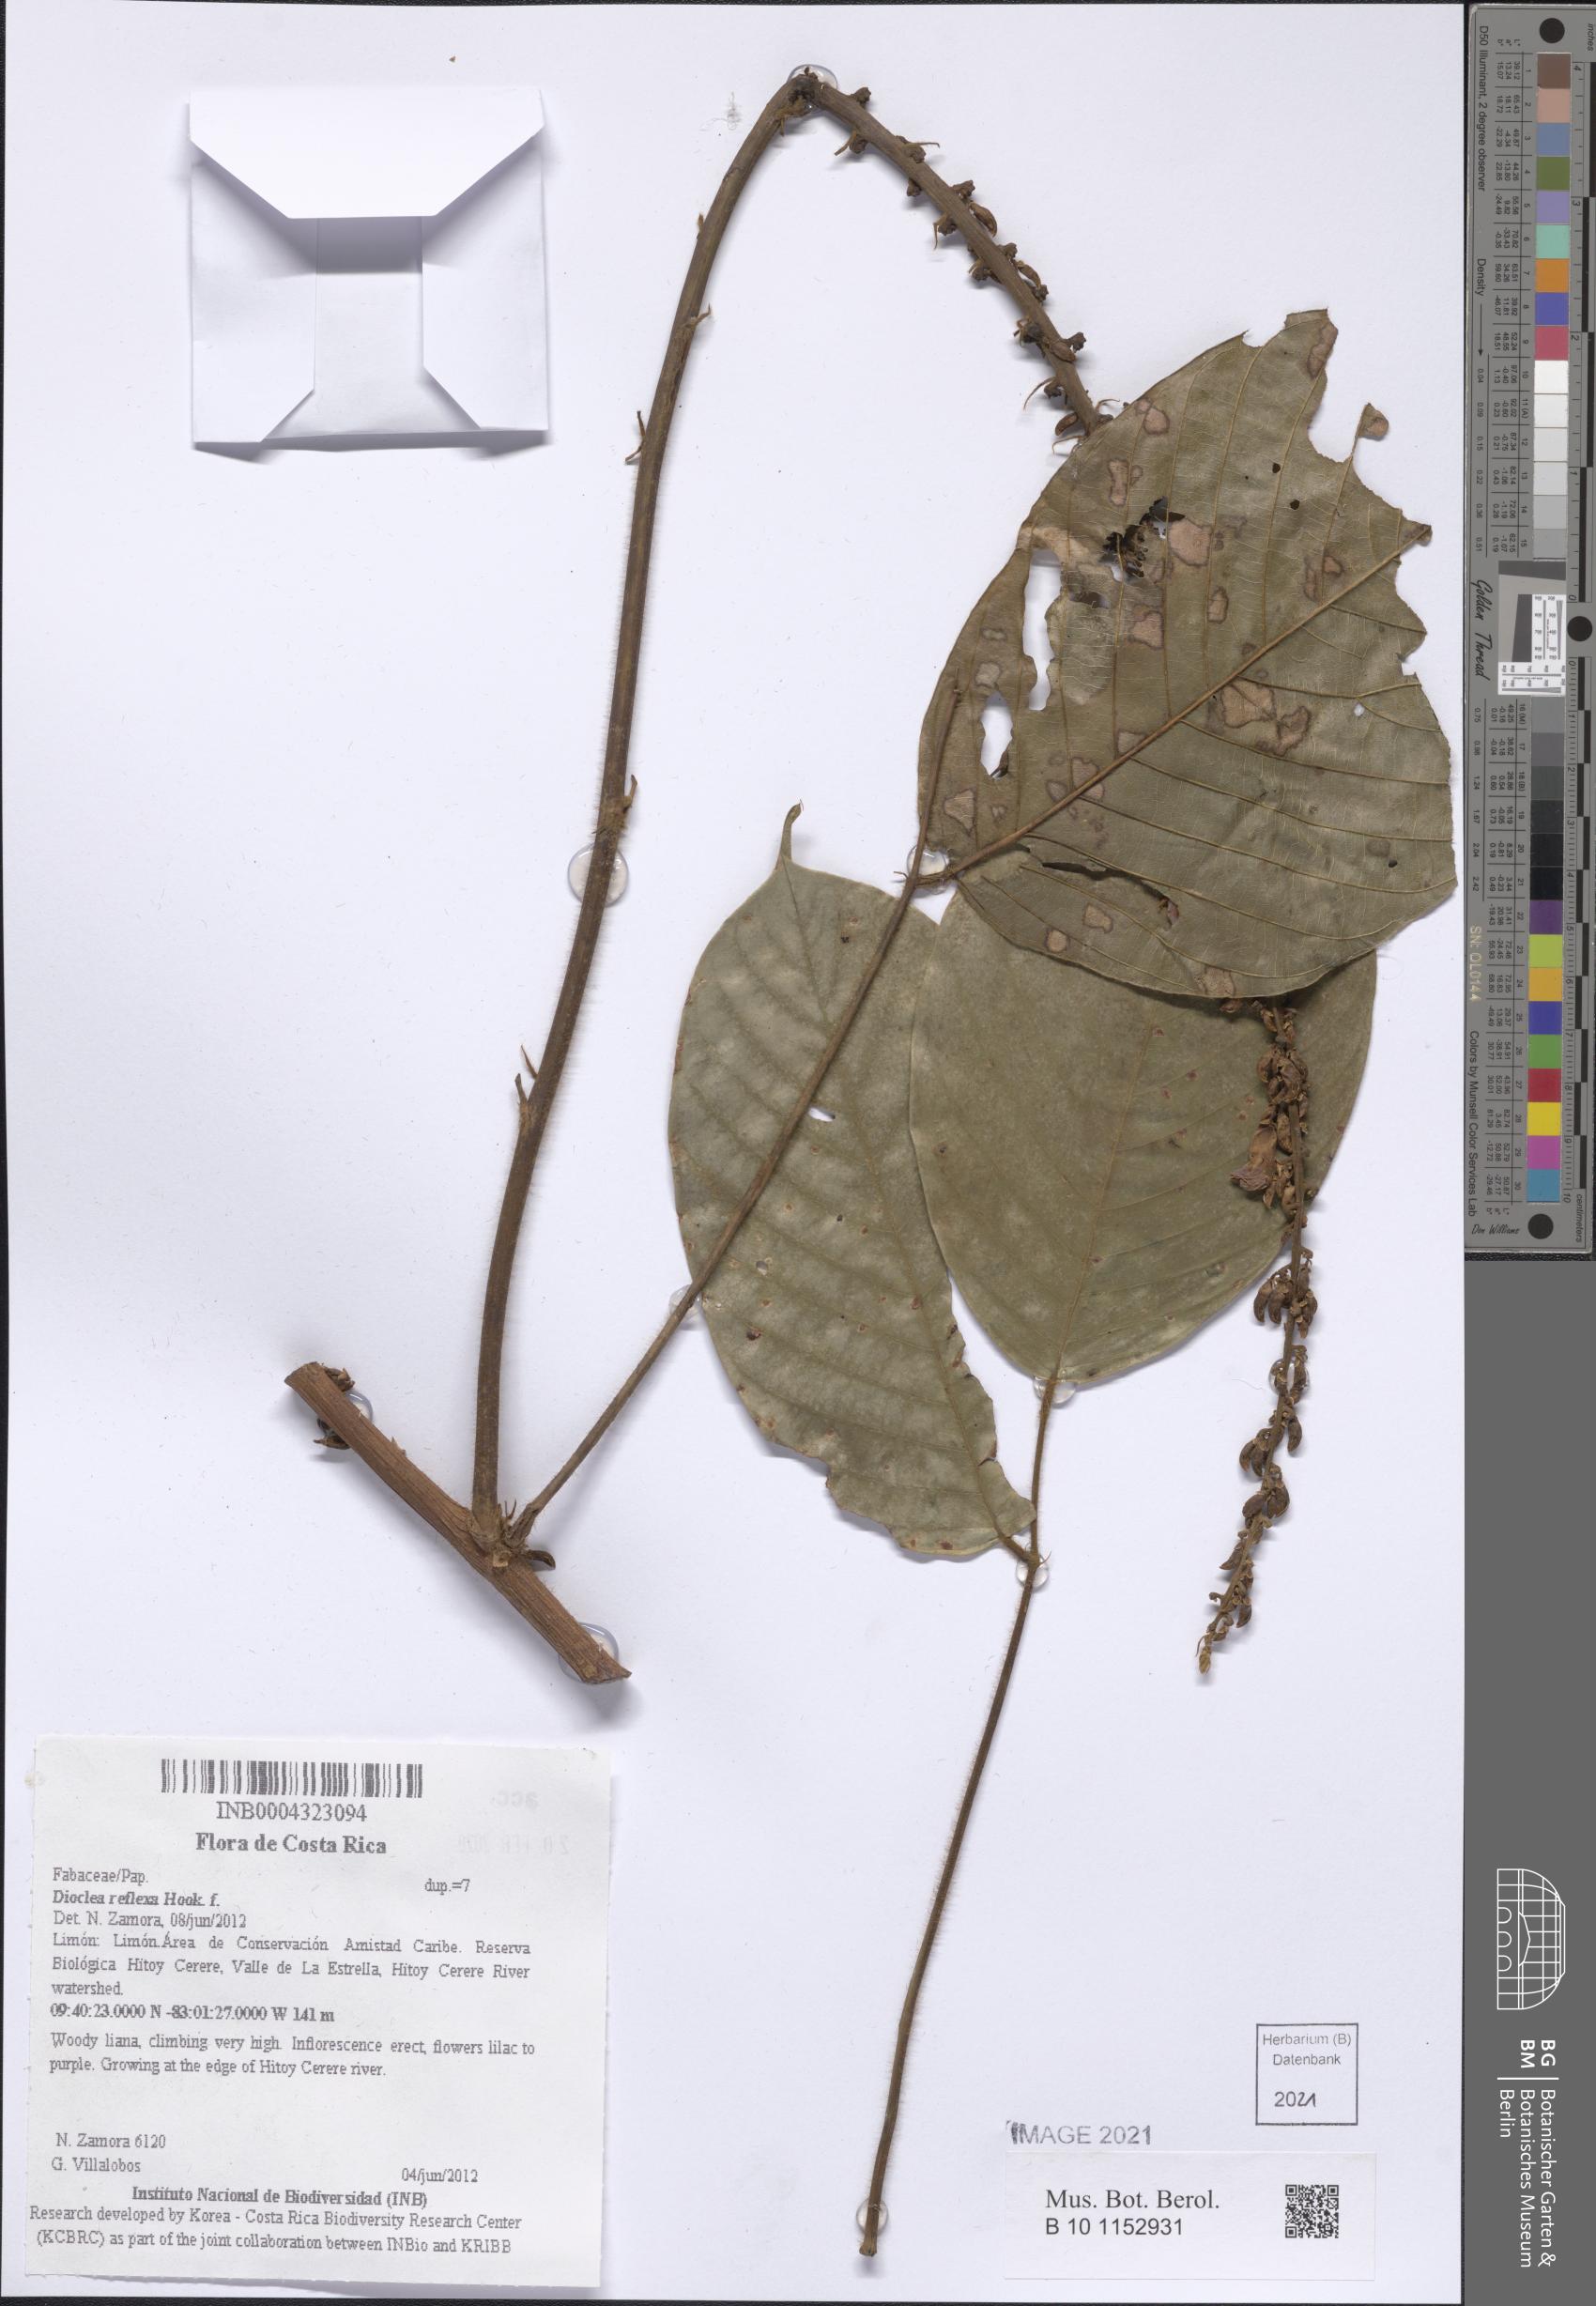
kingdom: Plantae
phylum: Tracheophyta
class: Magnoliopsida
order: Fabales
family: Fabaceae
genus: Macropsychanthus
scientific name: Macropsychanthus comosus
